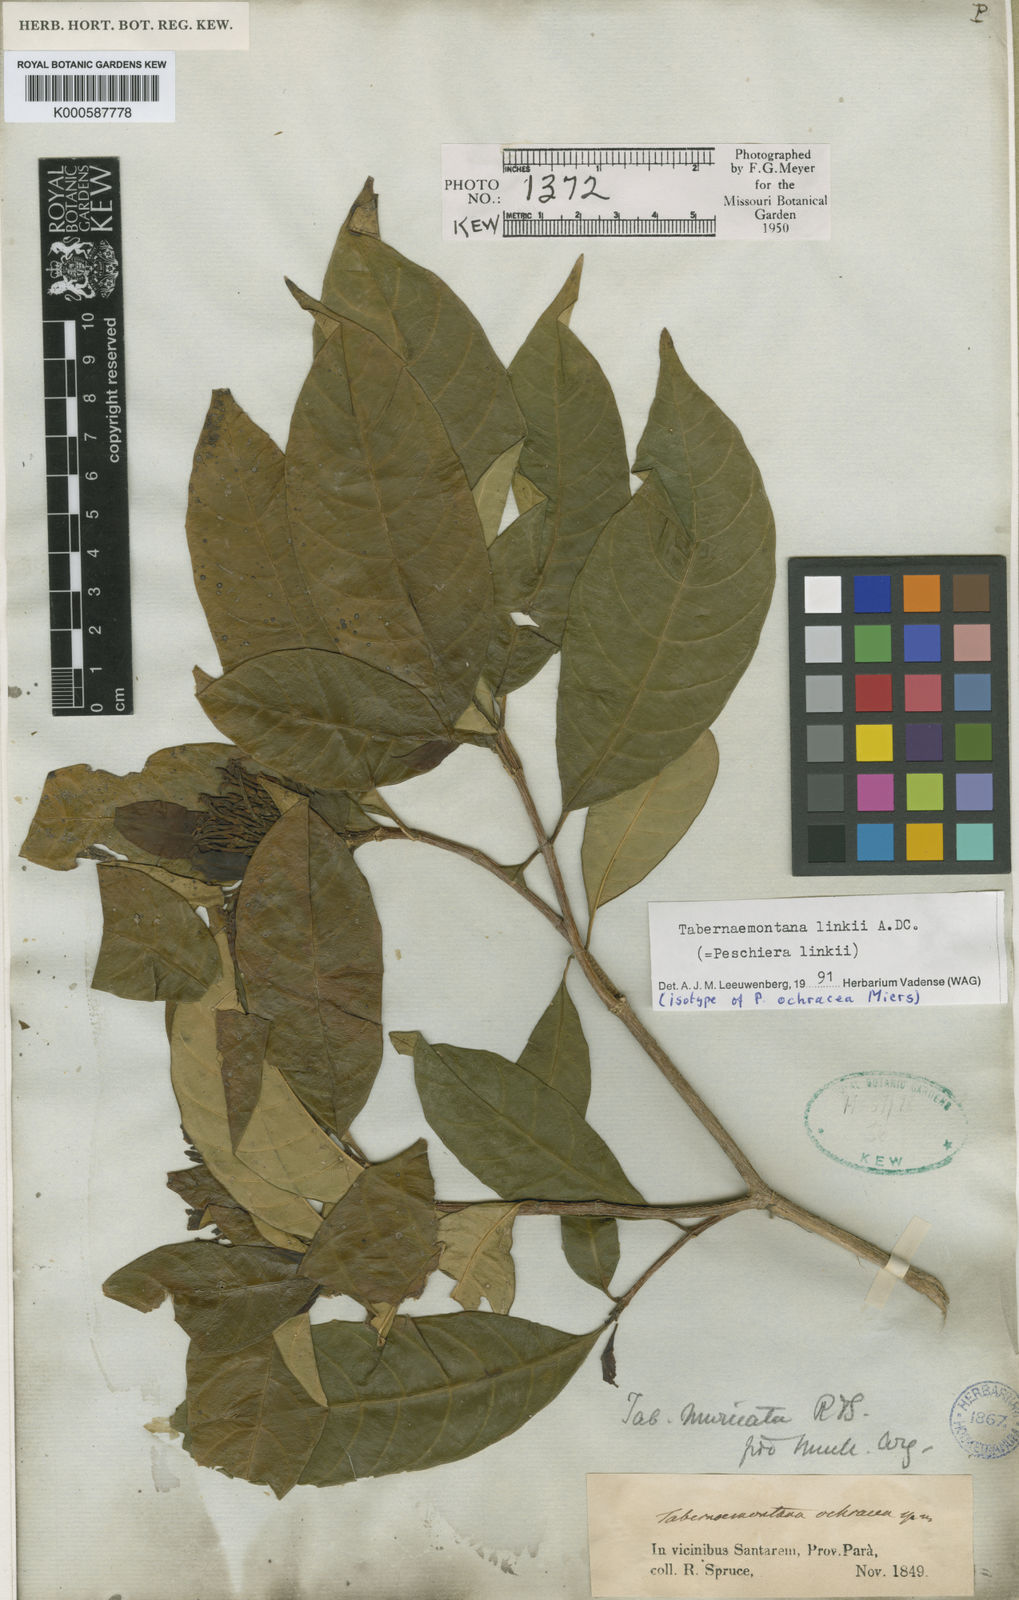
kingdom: Plantae
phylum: Tracheophyta
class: Magnoliopsida
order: Gentianales
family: Apocynaceae
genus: Tabernaemontana
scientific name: Tabernaemontana linkii
